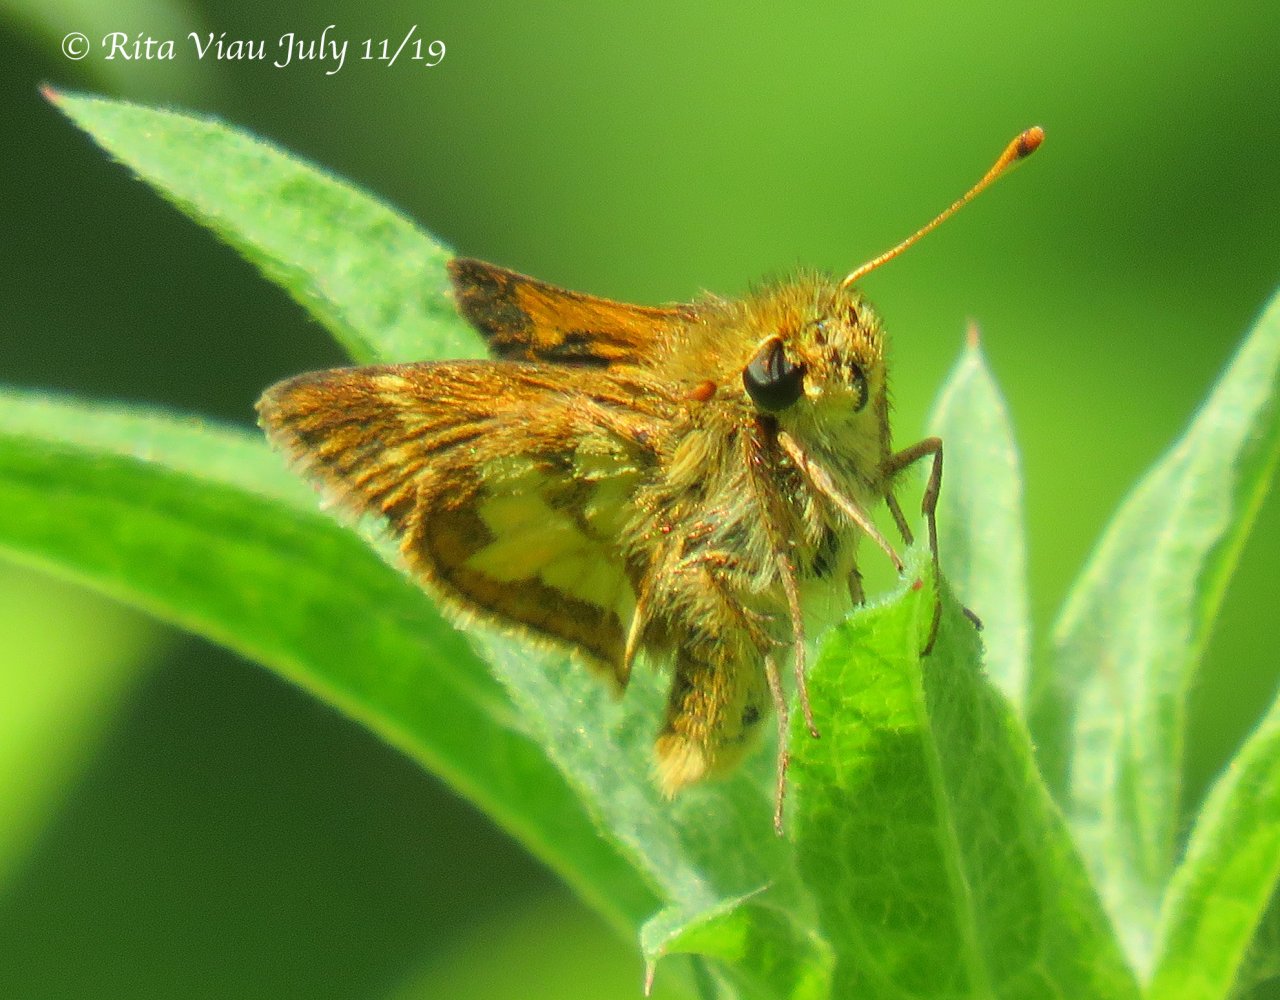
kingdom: Animalia
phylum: Arthropoda
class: Insecta
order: Lepidoptera
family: Hesperiidae
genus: Polites
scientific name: Polites coras
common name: Peck's Skipper
